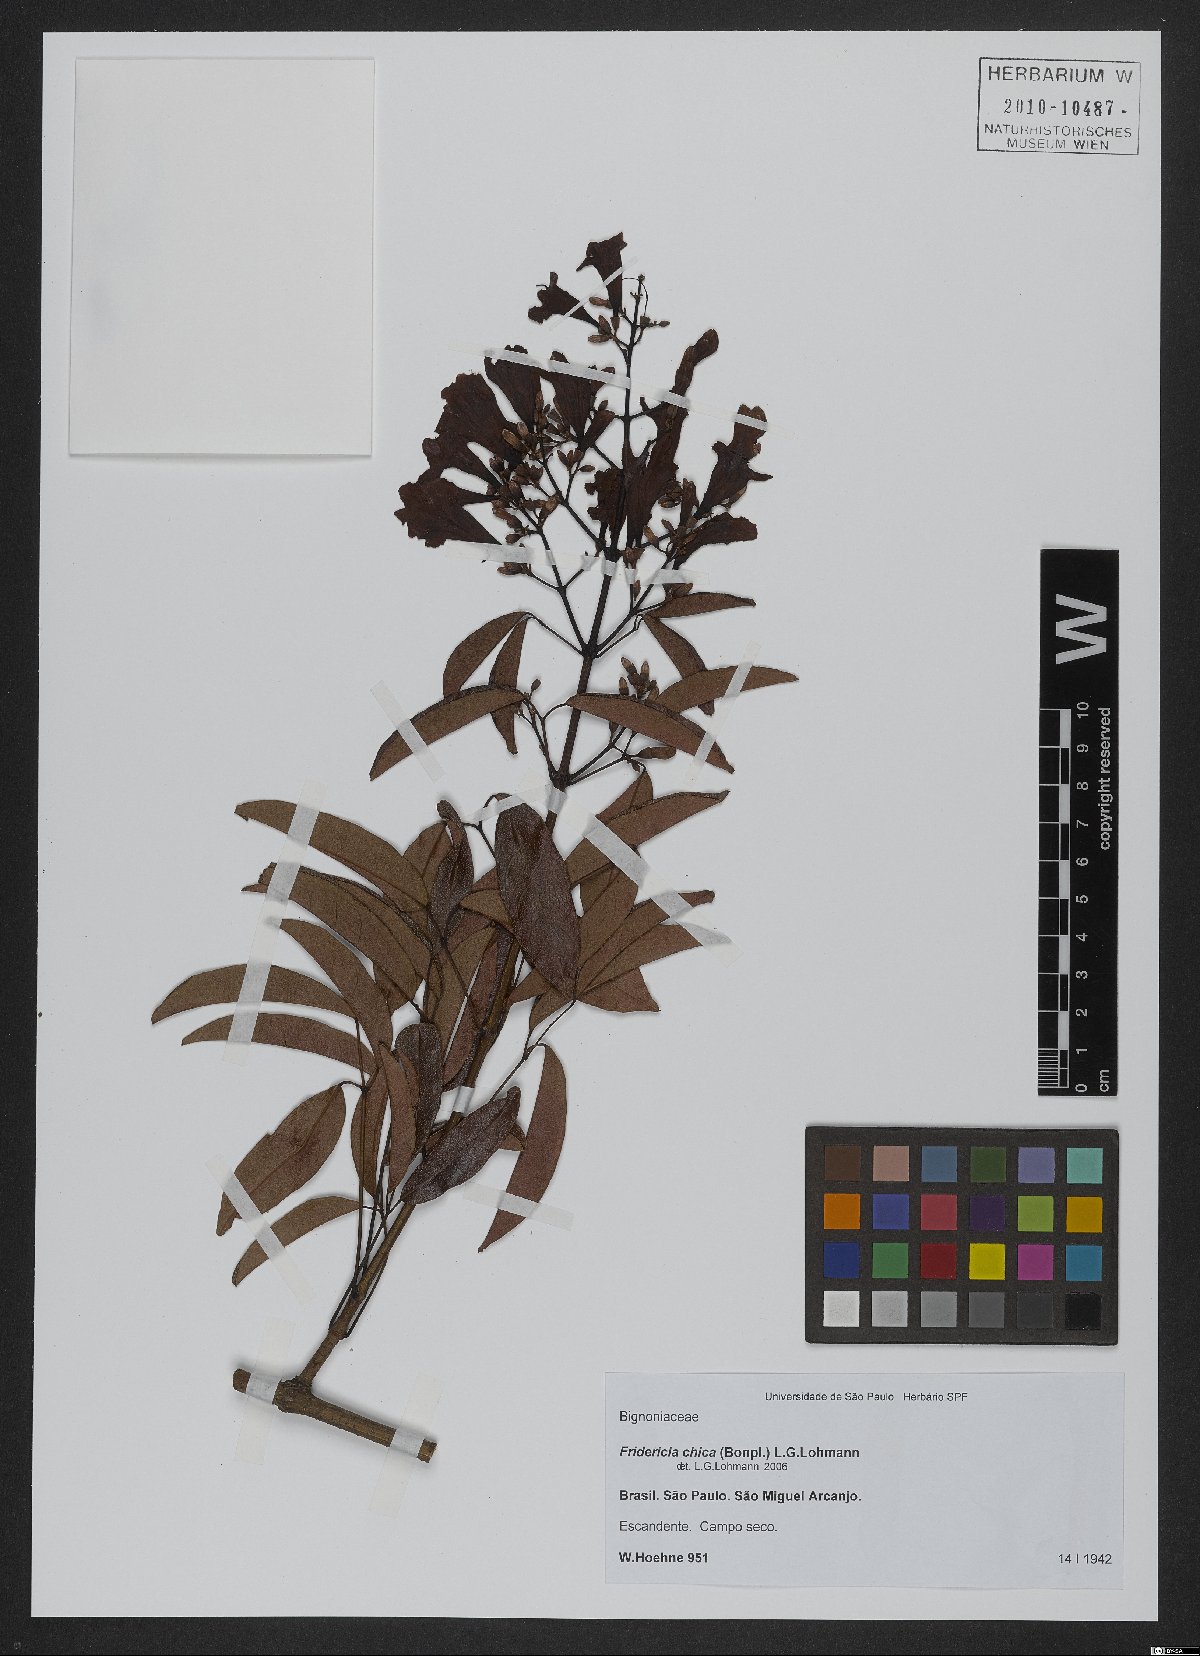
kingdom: Plantae
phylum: Tracheophyta
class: Magnoliopsida
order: Lamiales
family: Bignoniaceae
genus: Fridericia
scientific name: Fridericia chica
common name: Cricketvine
